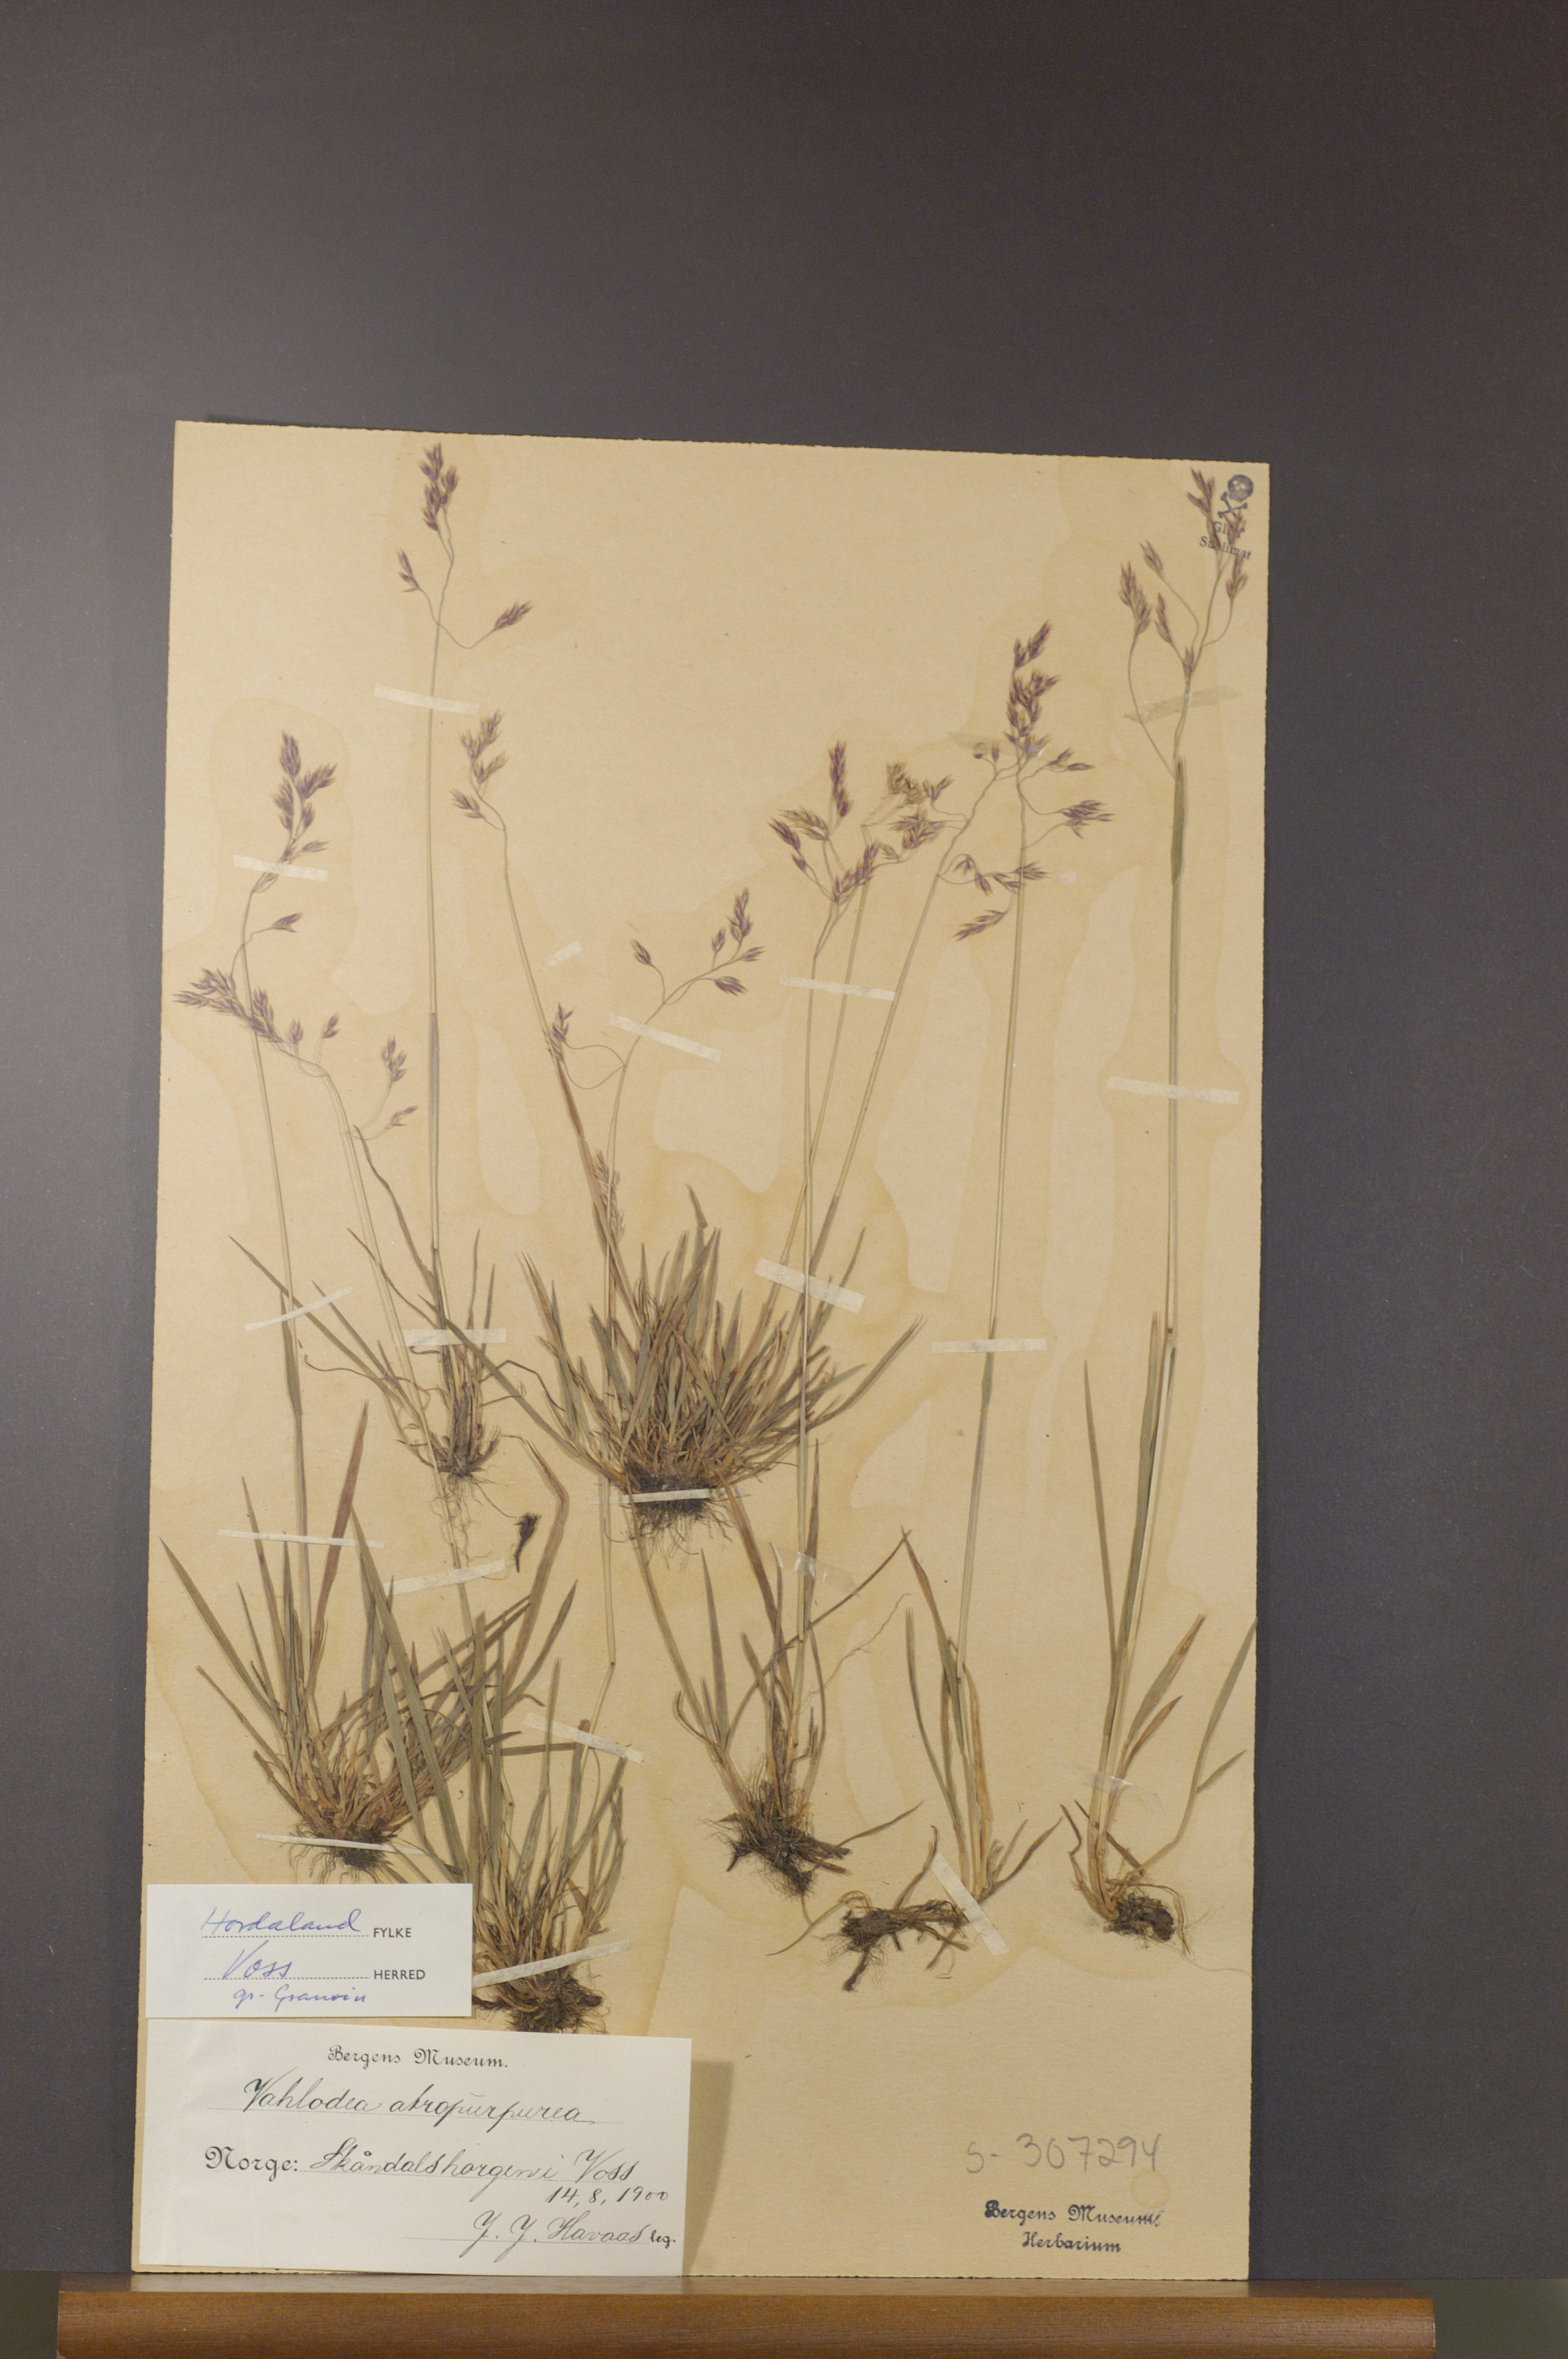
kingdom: Plantae
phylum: Tracheophyta
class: Liliopsida
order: Poales
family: Poaceae
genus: Vahlodea
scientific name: Vahlodea atropurpurea
